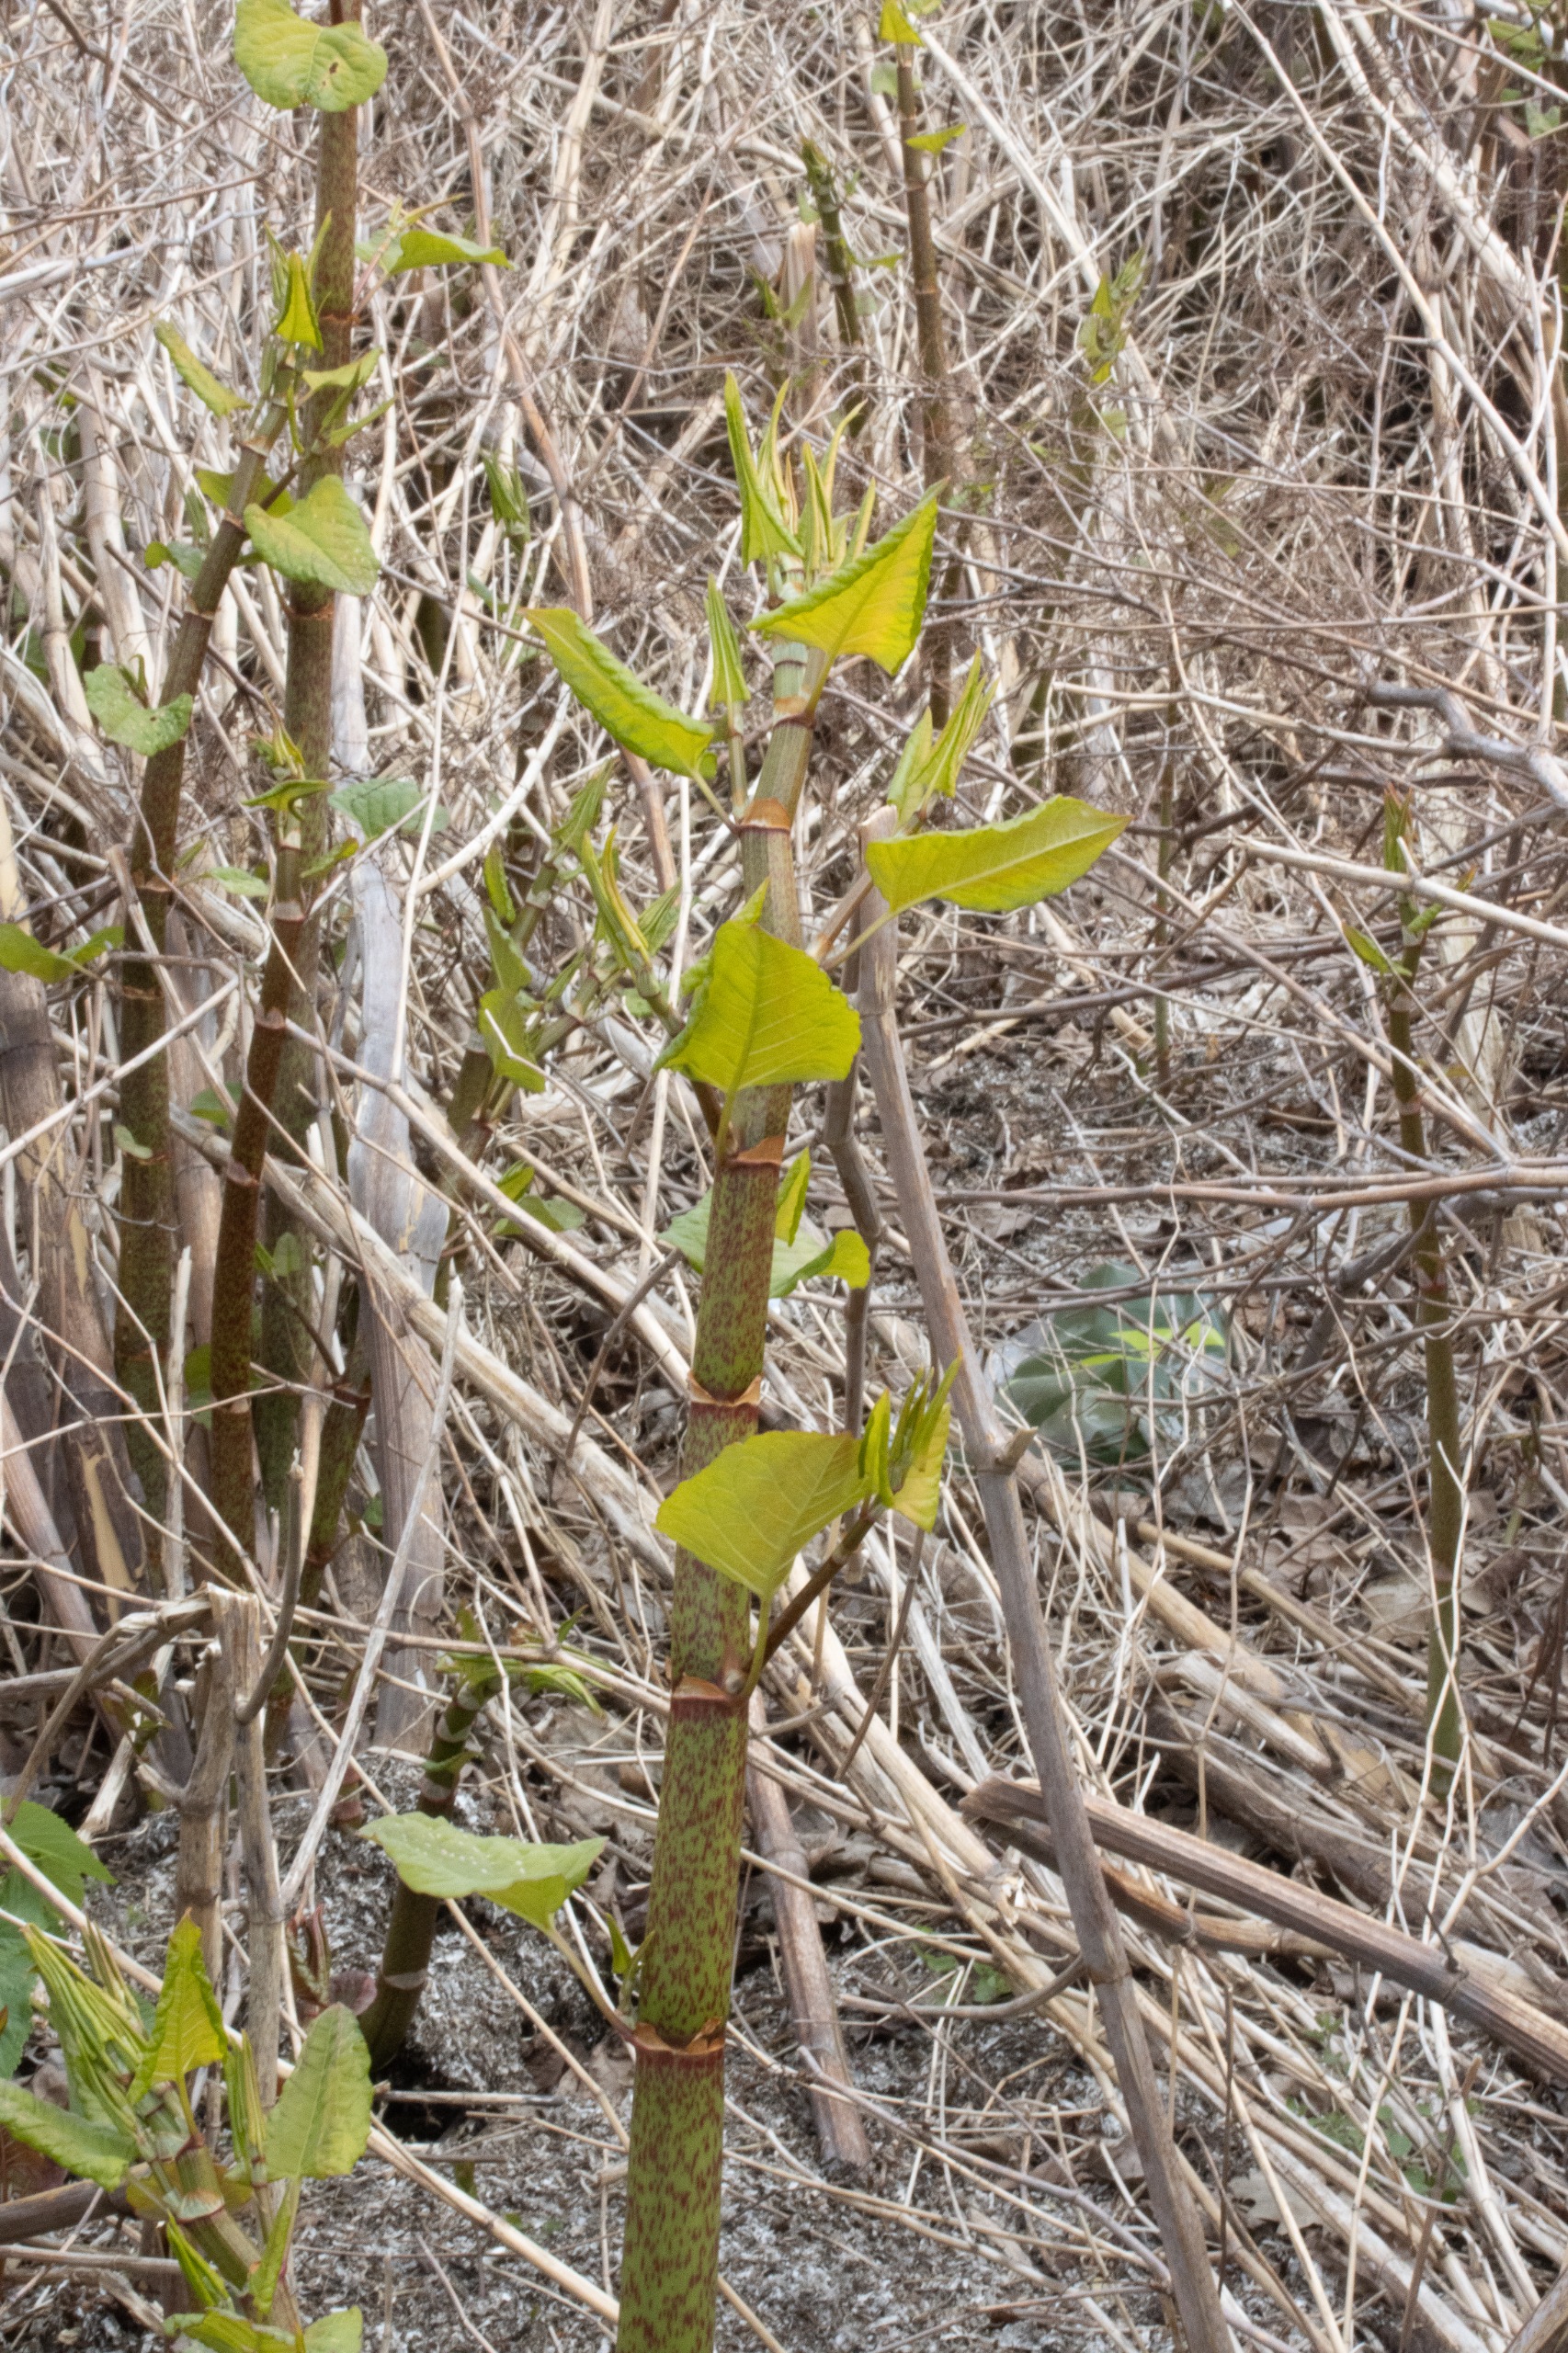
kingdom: Plantae
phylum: Tracheophyta
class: Magnoliopsida
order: Caryophyllales
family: Polygonaceae
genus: Reynoutria
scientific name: Reynoutria japonica
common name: Japan-pileurt
